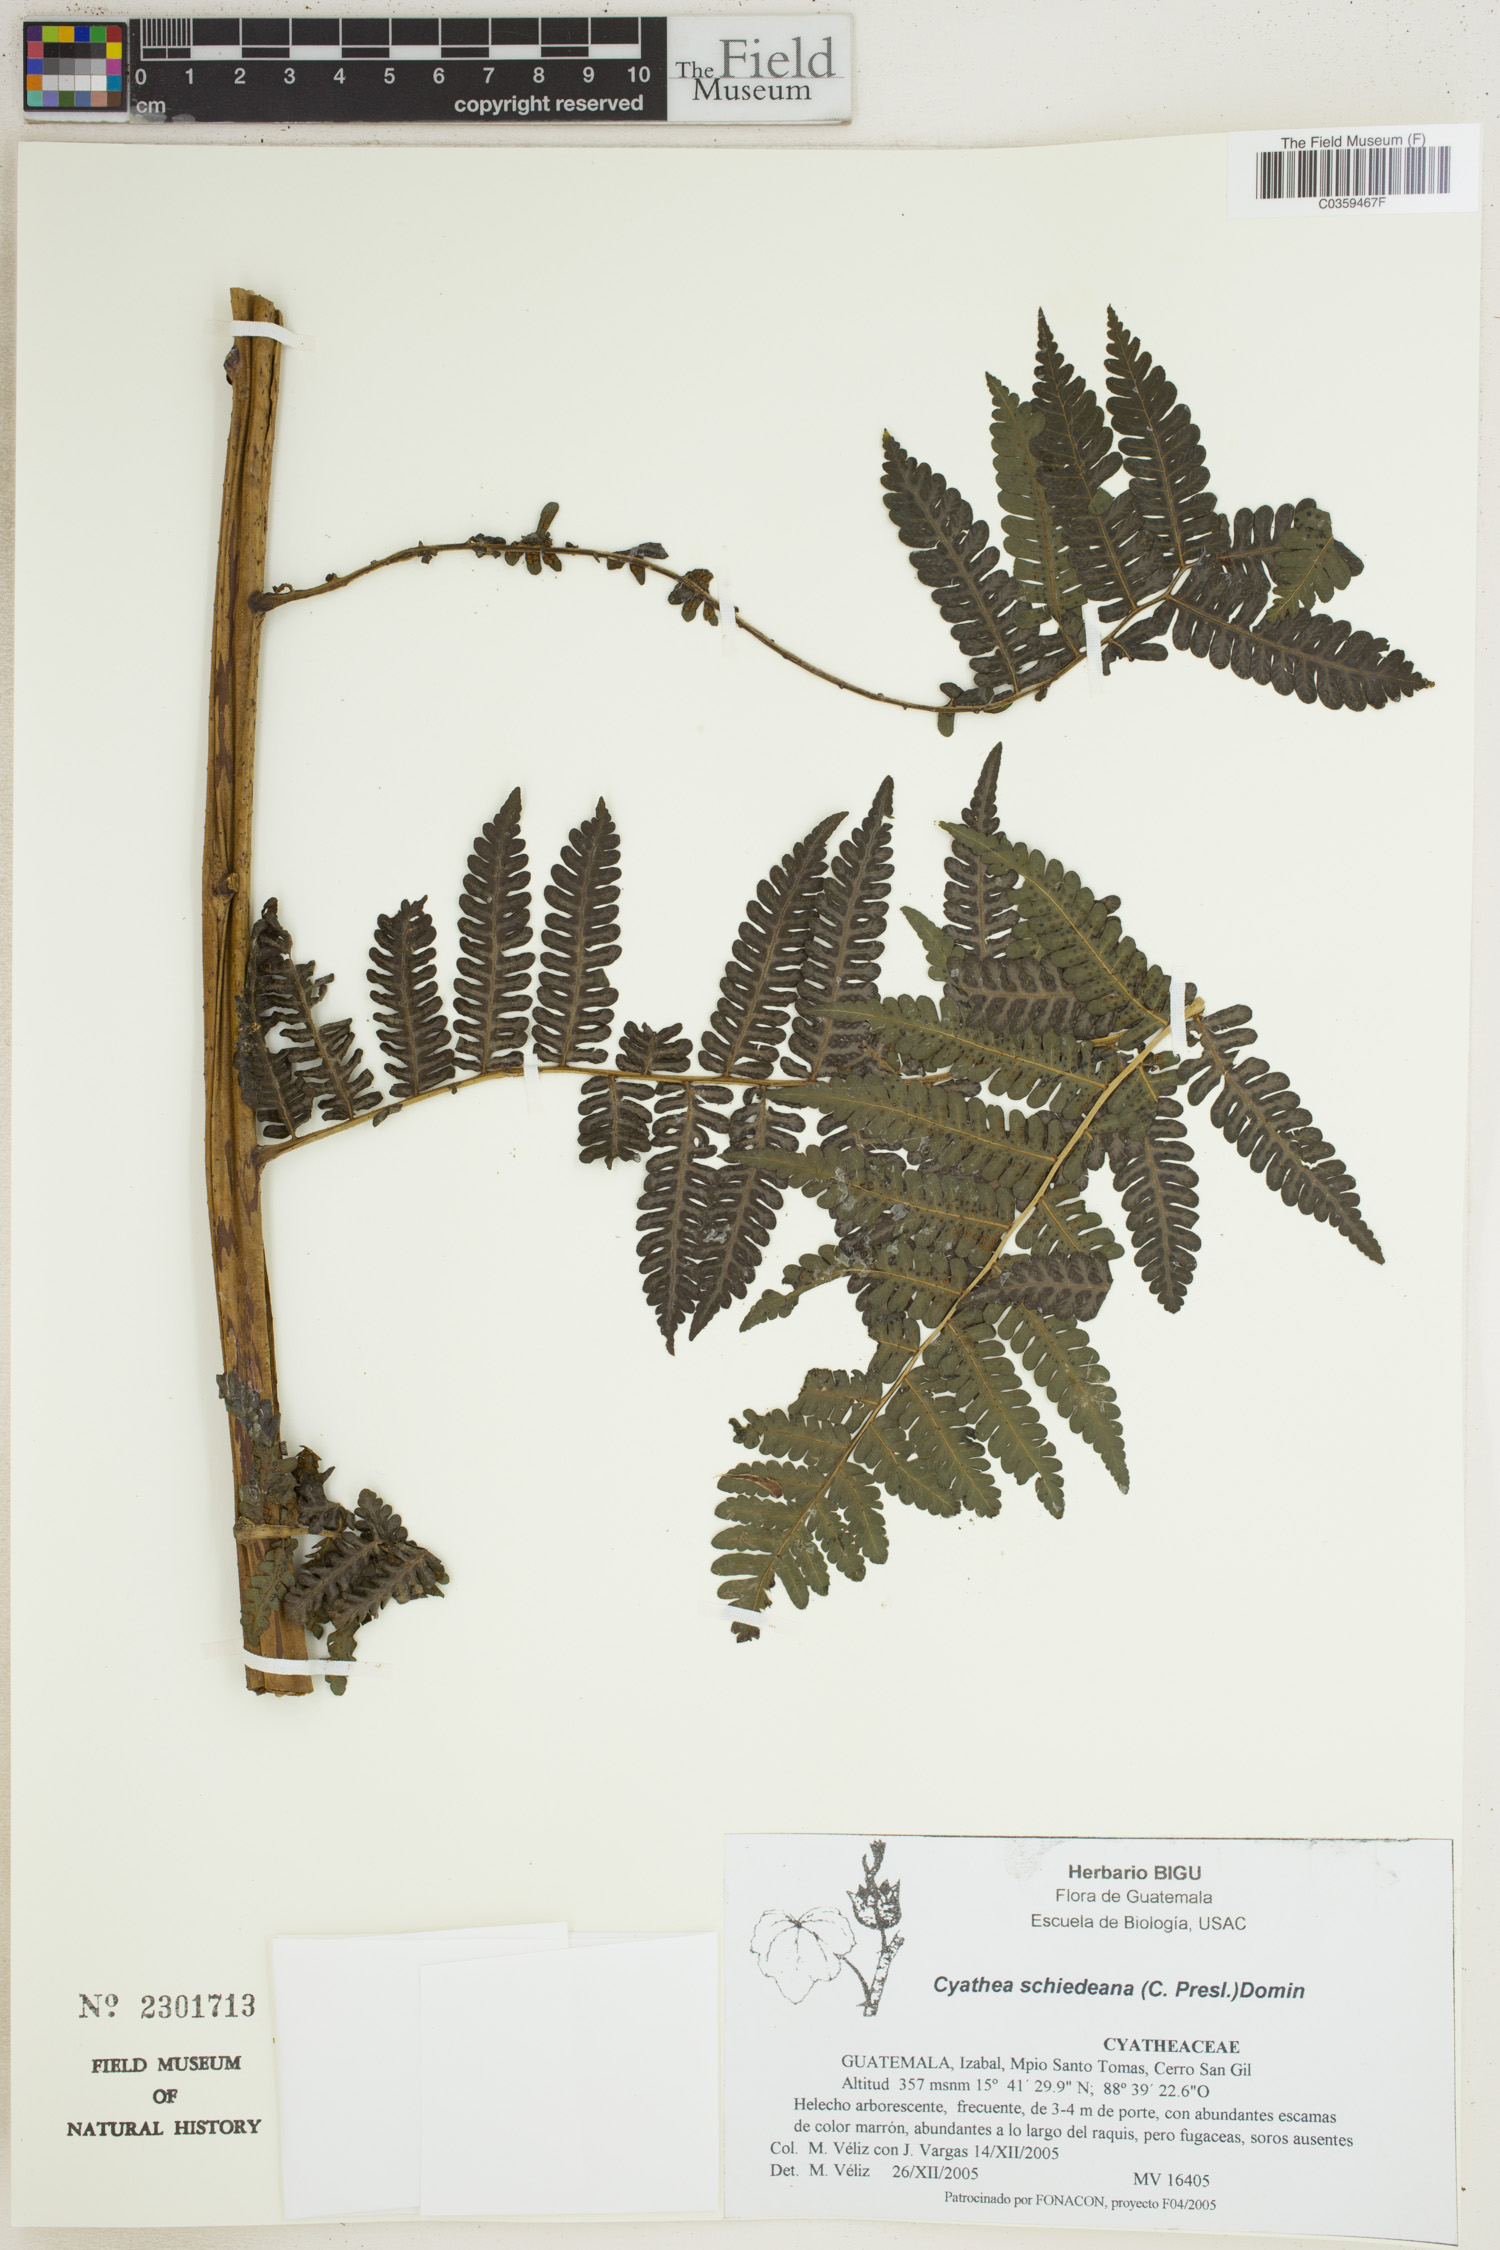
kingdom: Plantae
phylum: Tracheophyta
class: Polypodiopsida
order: Cyatheales
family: Cyatheaceae
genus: Cyathea
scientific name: Cyathea schiedeana
